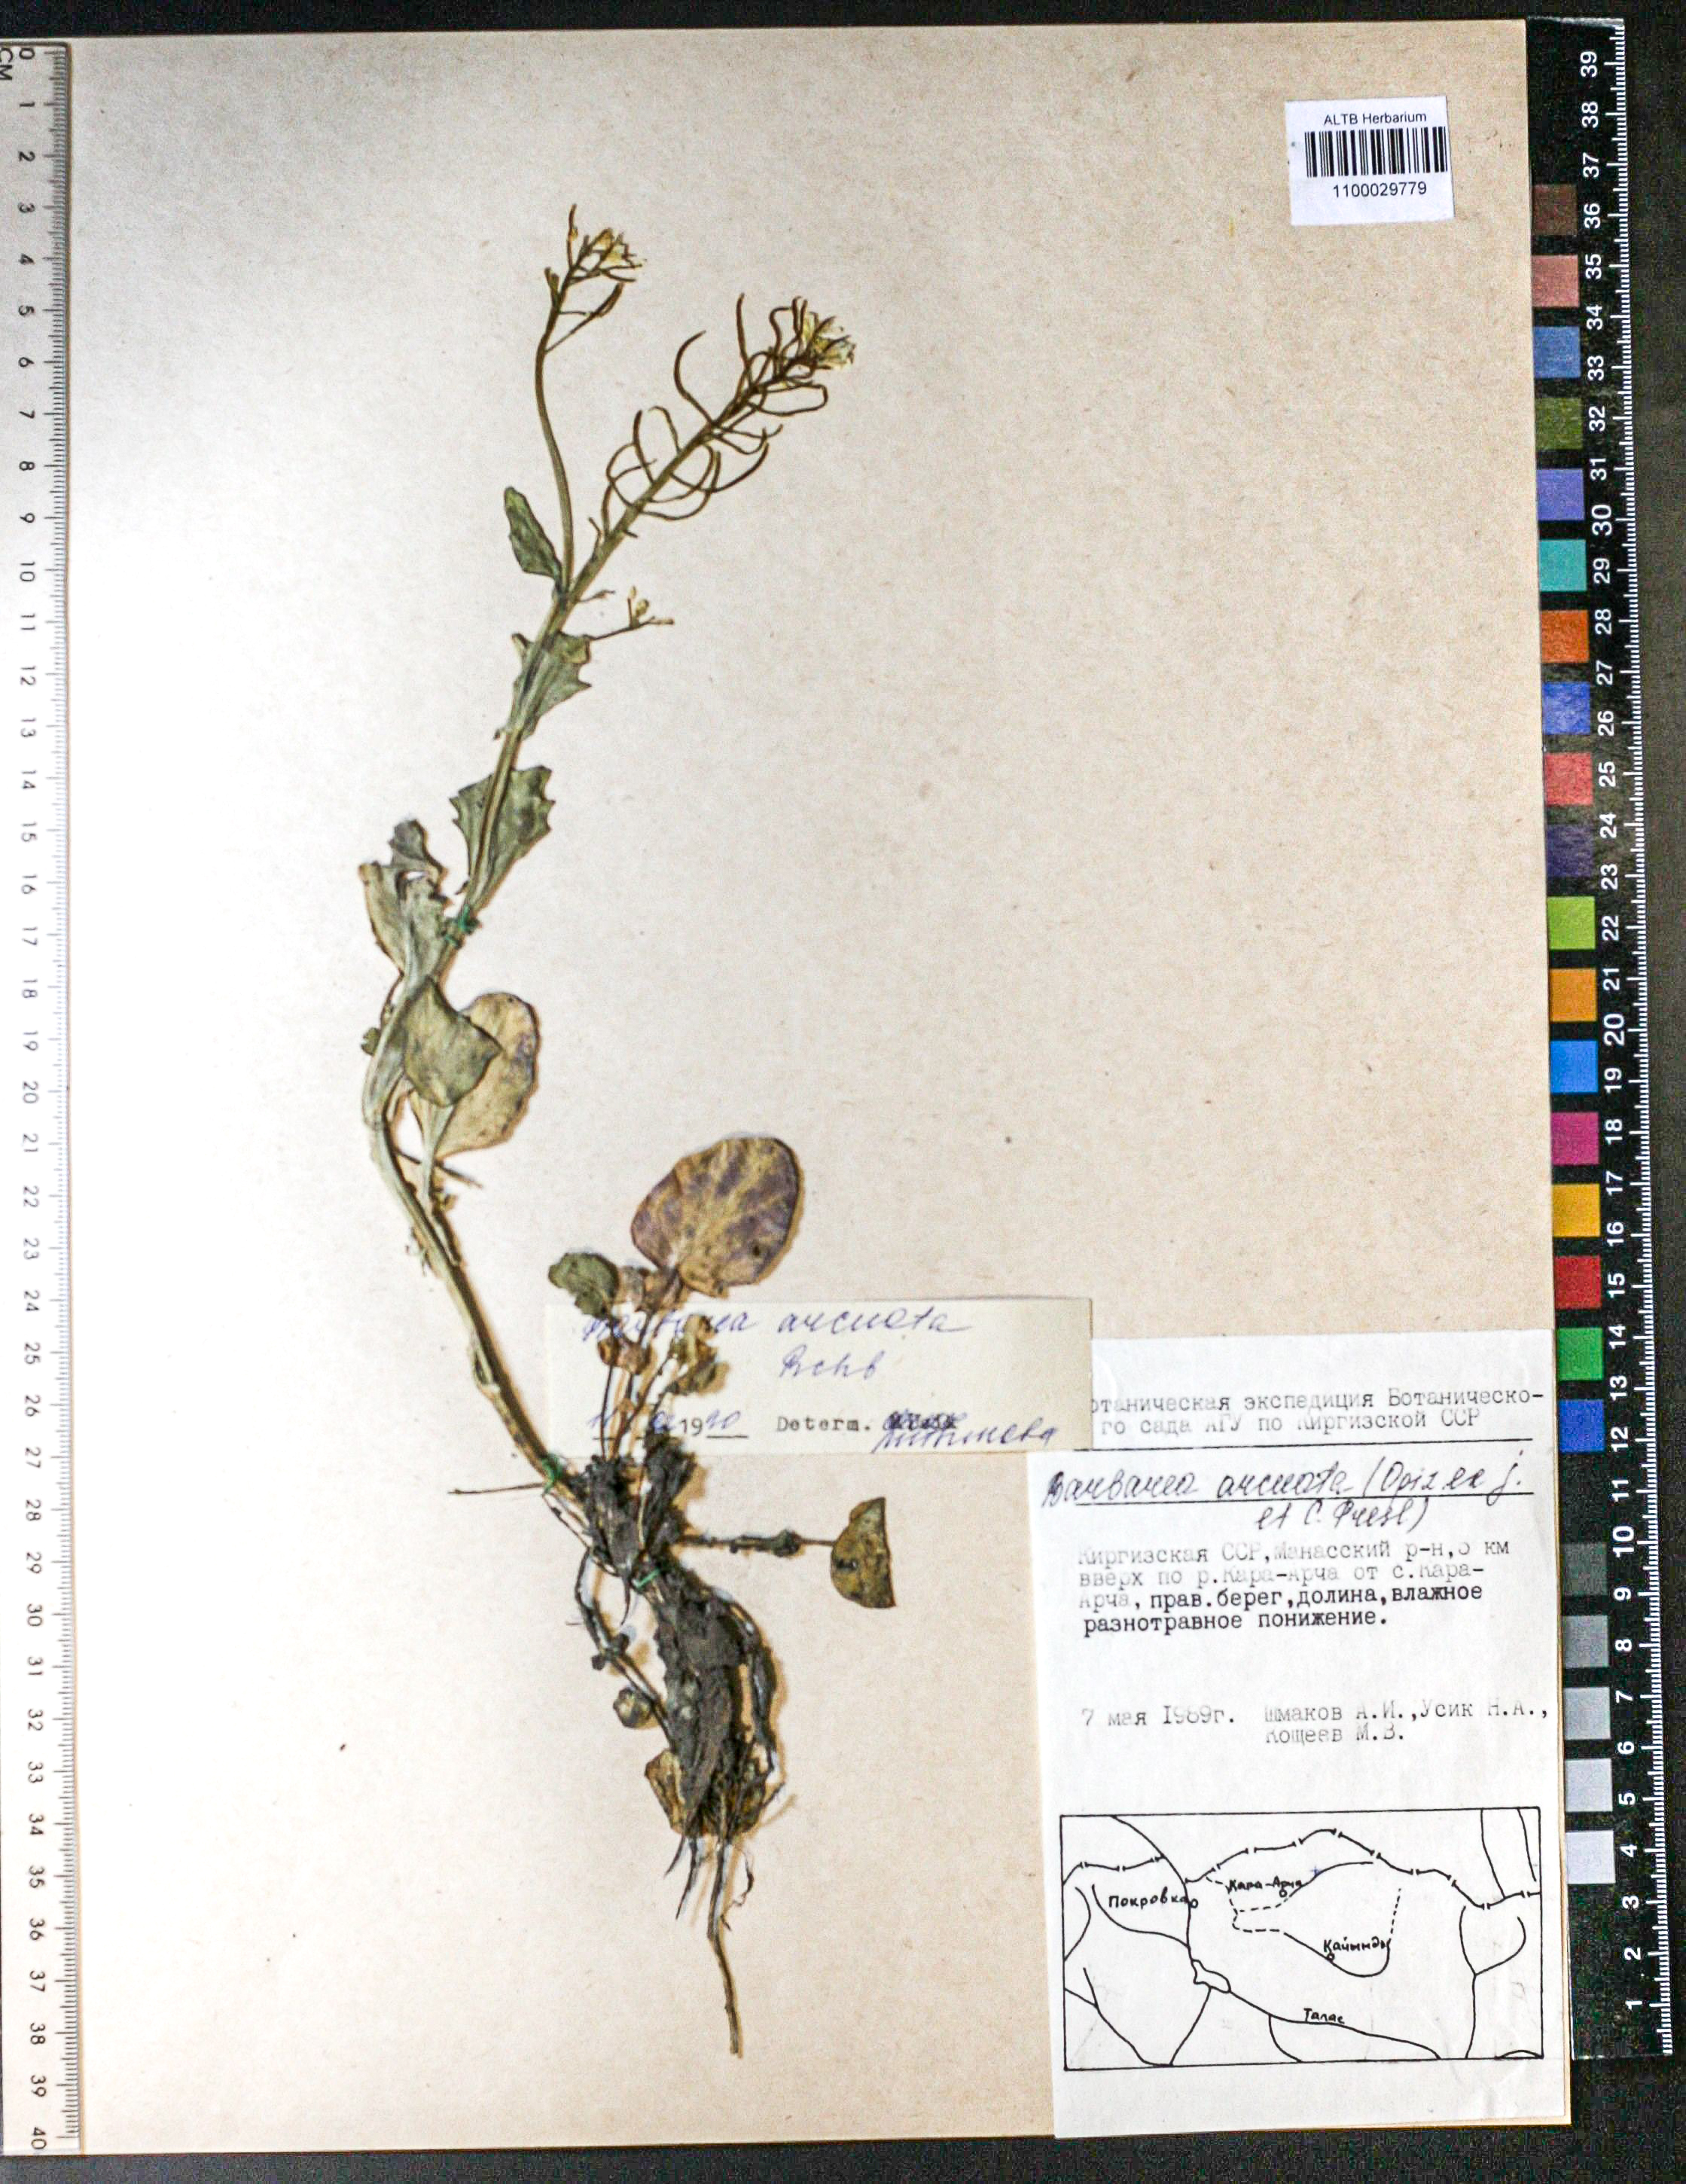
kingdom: Plantae
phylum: Tracheophyta
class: Magnoliopsida
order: Brassicales
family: Brassicaceae
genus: Barbarea
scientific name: Barbarea vulgaris
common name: Cressy-greens
